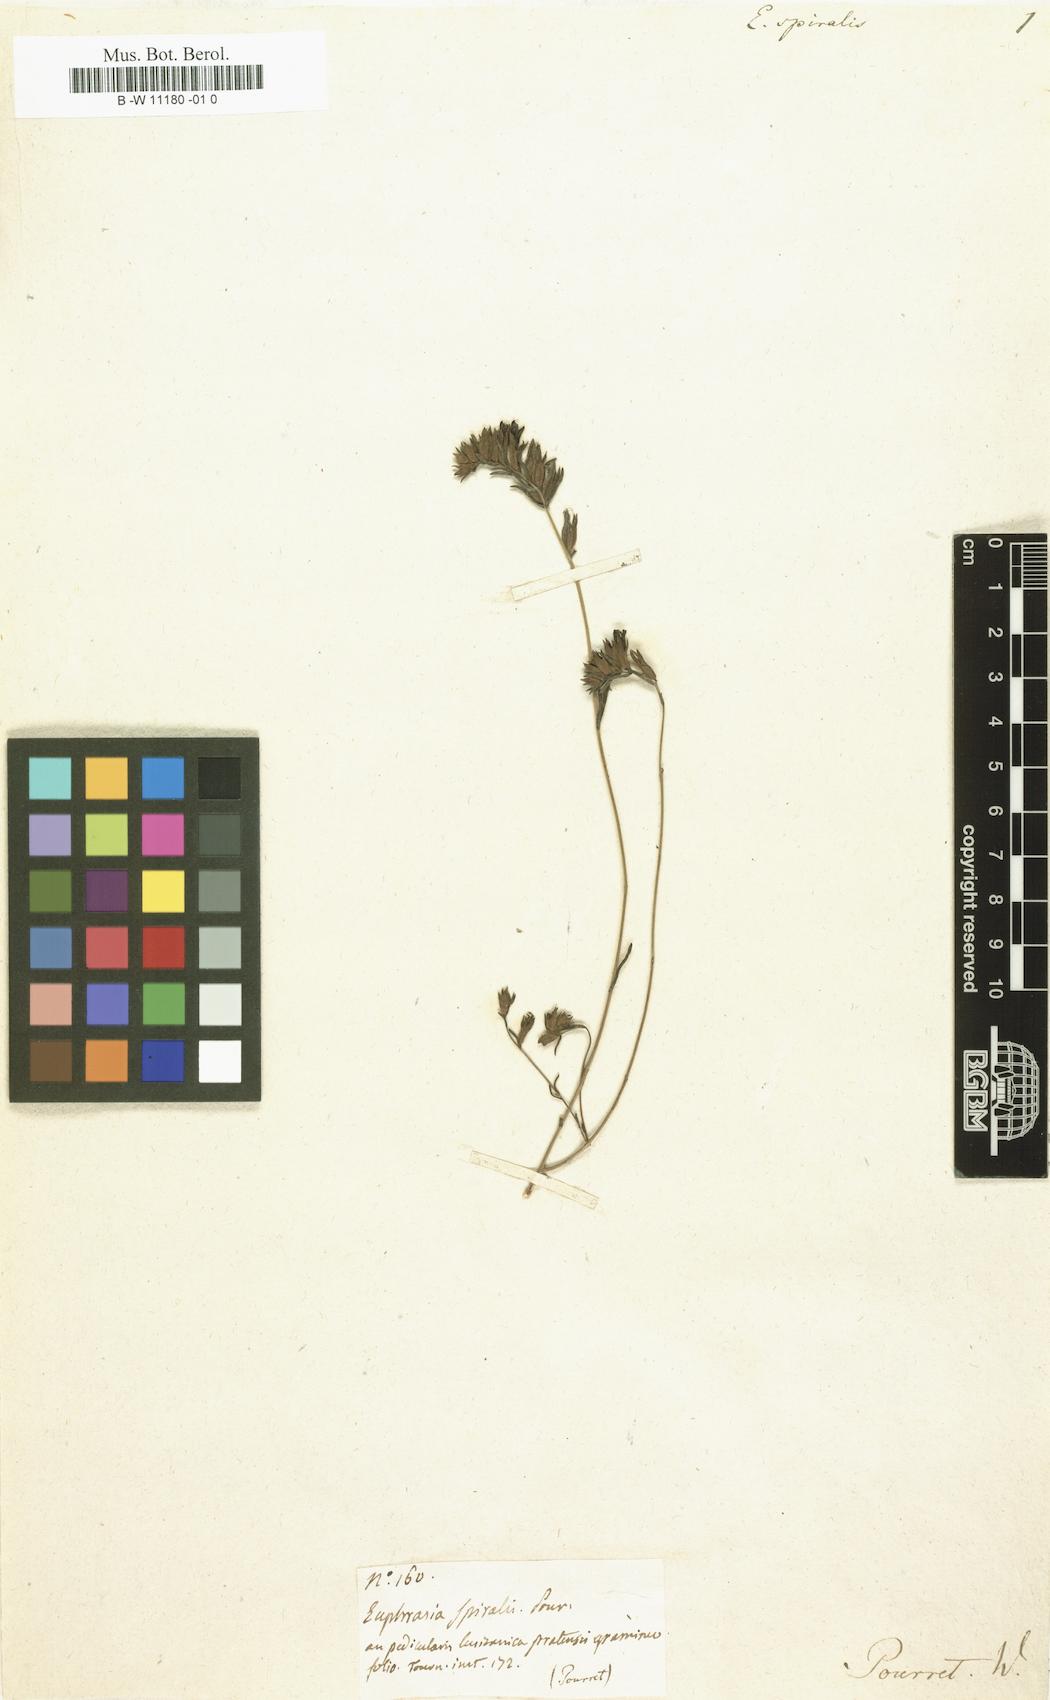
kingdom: Plantae
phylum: Tracheophyta
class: Magnoliopsida
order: Lamiales
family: Orobanchaceae
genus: Odontitella
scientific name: Odontitella virgata
